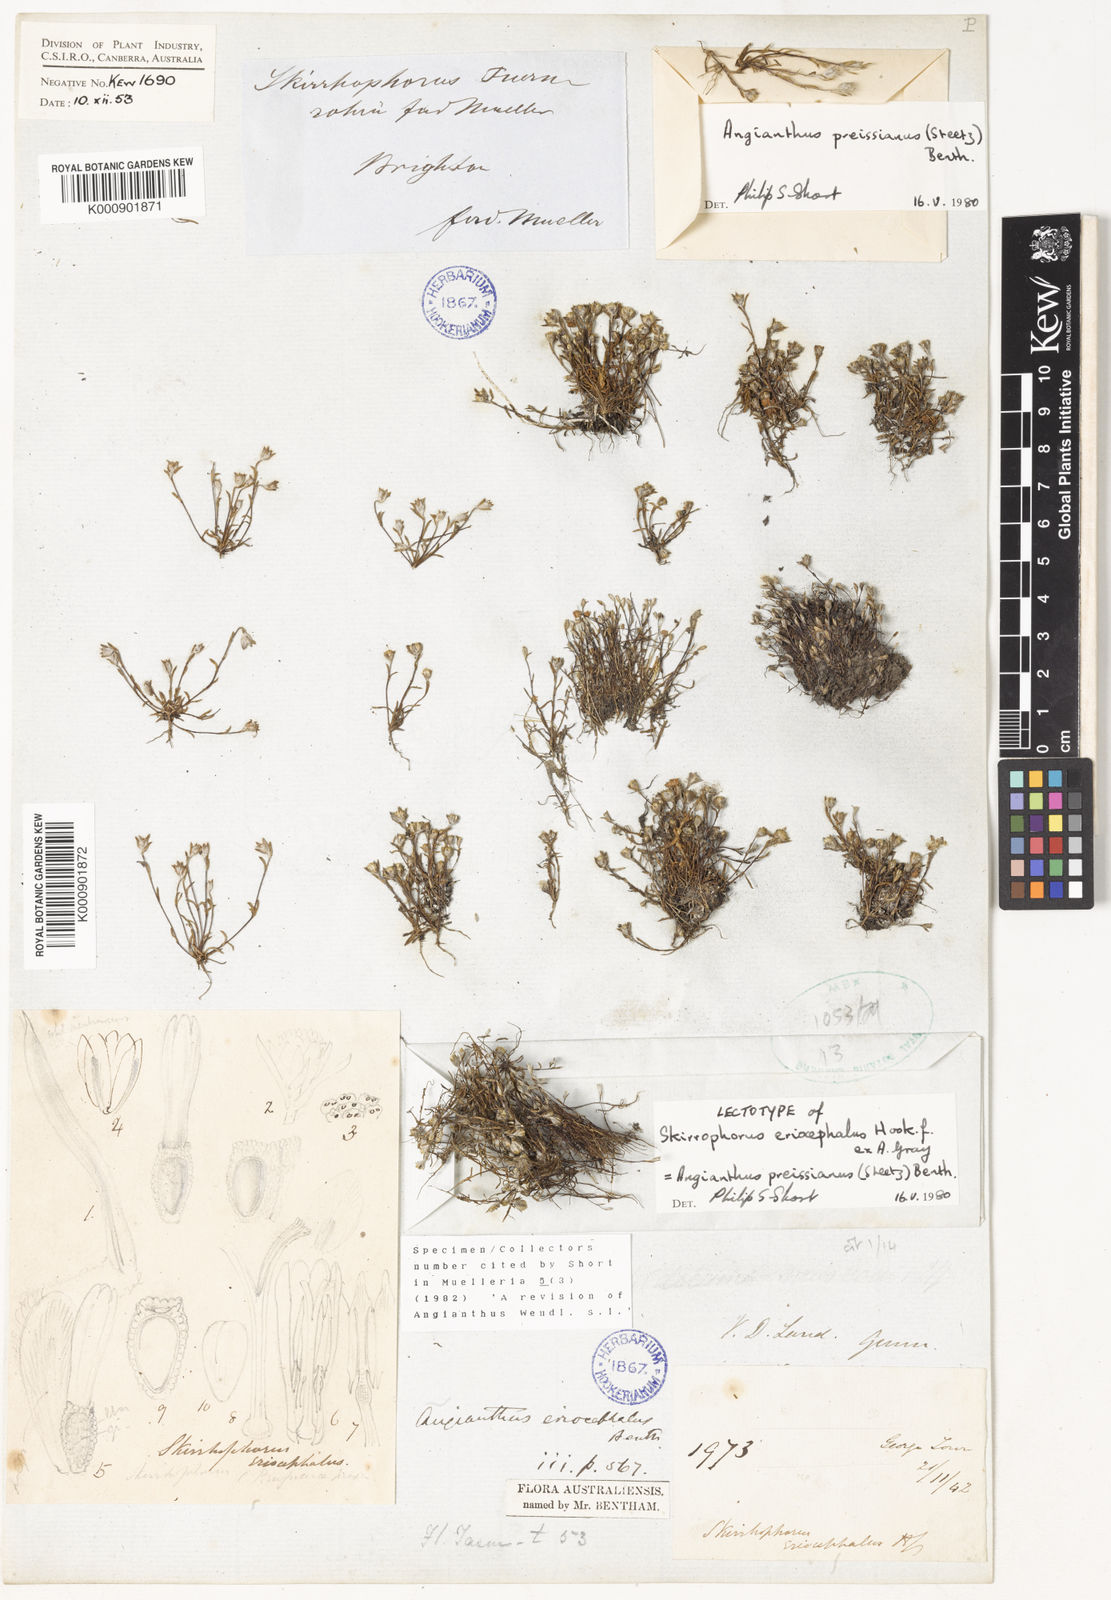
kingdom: Plantae
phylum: Tracheophyta
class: Magnoliopsida
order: Asterales
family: Asteraceae
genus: Angianthus
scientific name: Angianthus preissianus
